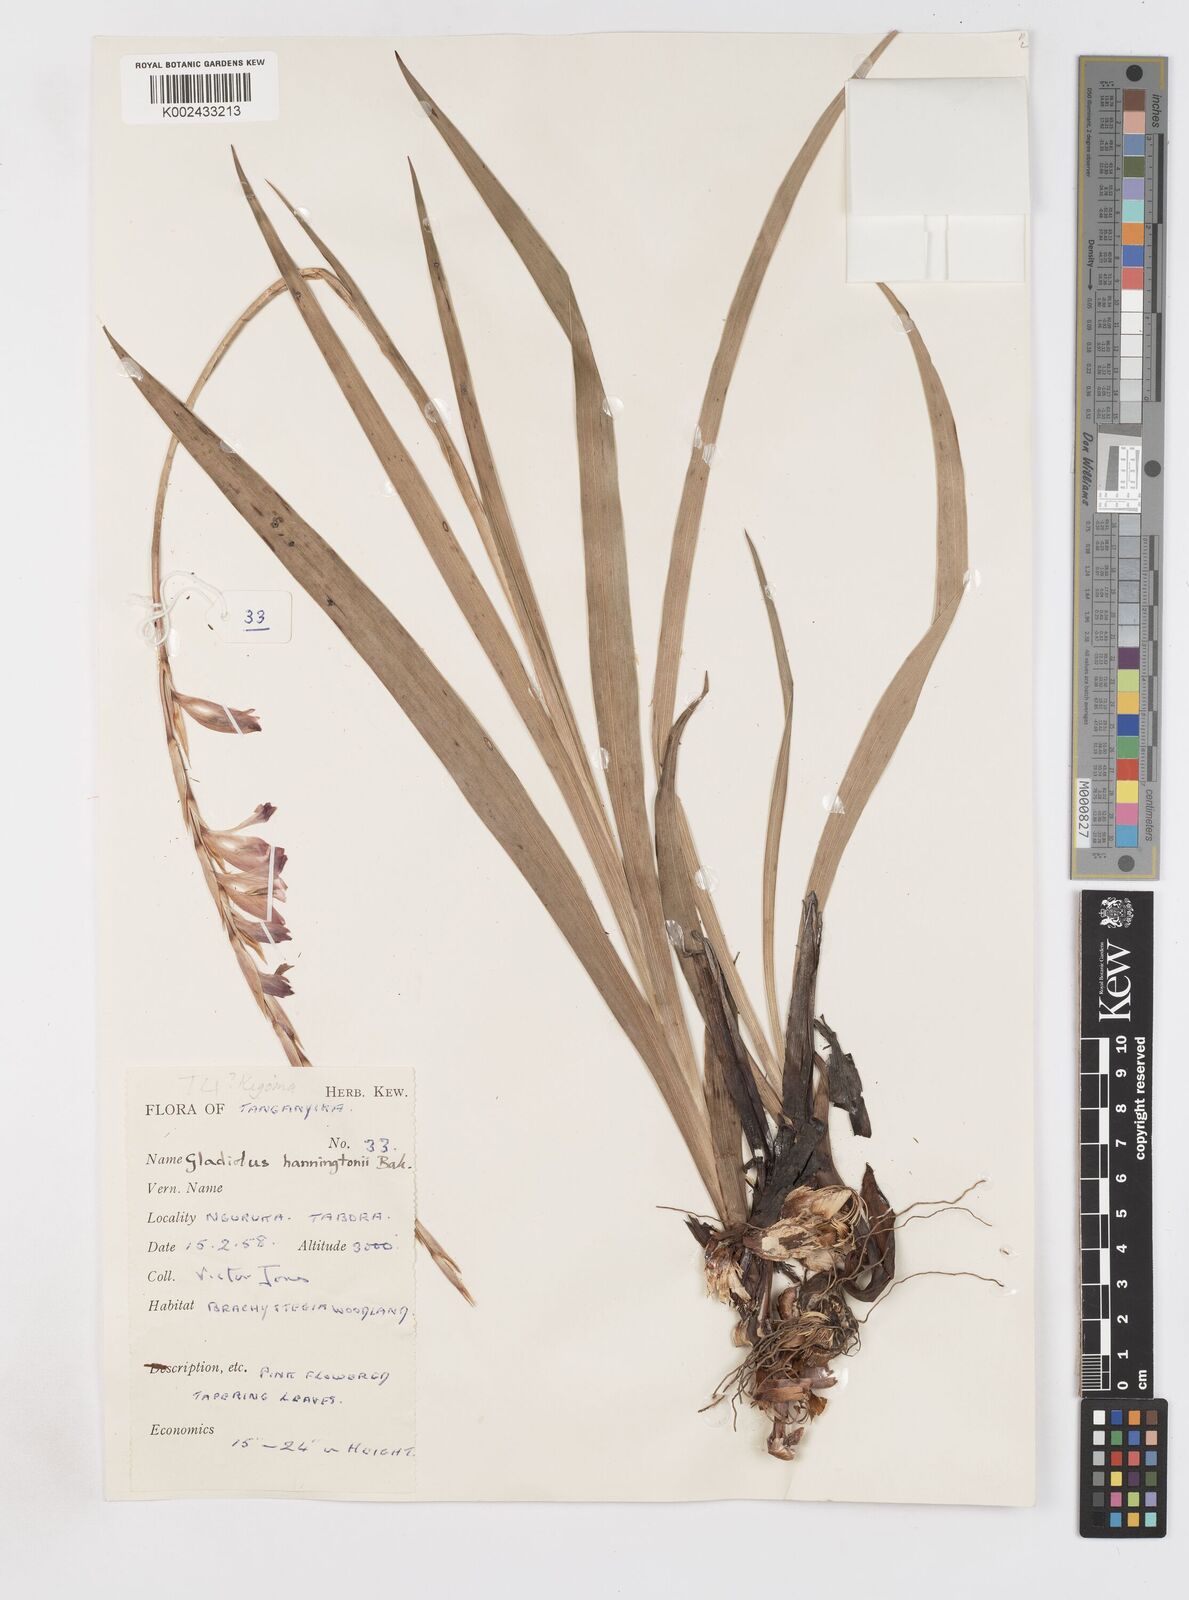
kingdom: Plantae
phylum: Tracheophyta
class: Liliopsida
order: Asparagales
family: Iridaceae
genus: Gladiolus
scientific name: Gladiolus gregarius
